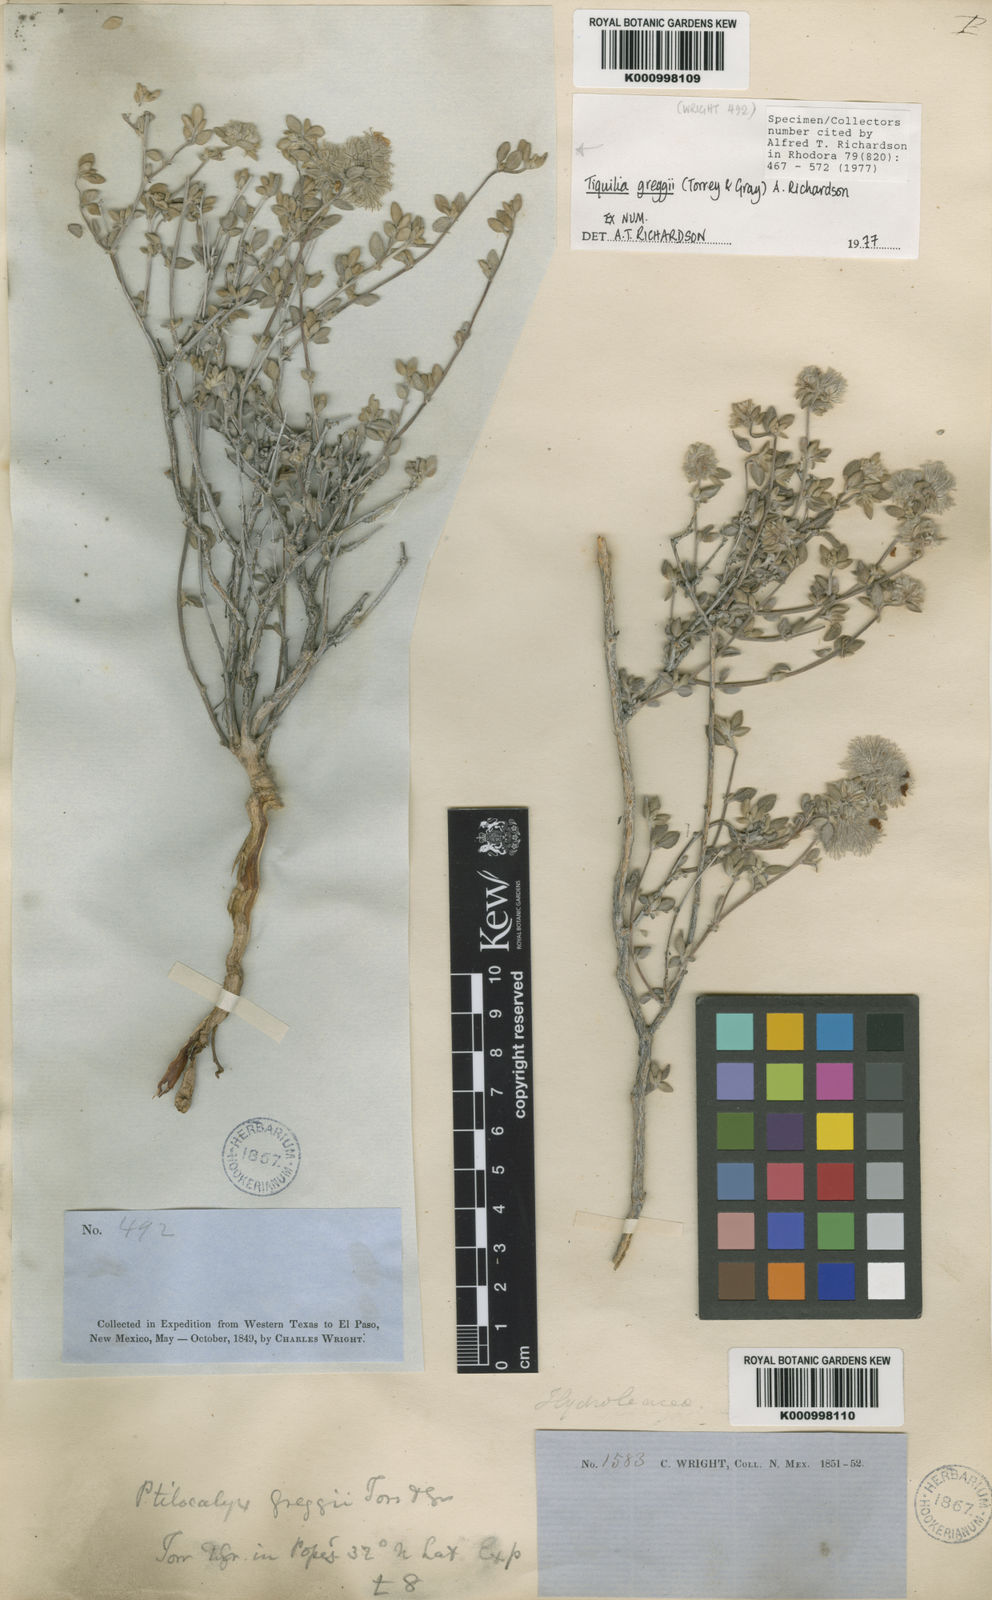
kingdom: Plantae
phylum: Tracheophyta
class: Magnoliopsida
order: Boraginales
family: Ehretiaceae
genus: Tiquilia
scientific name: Tiquilia greggii
